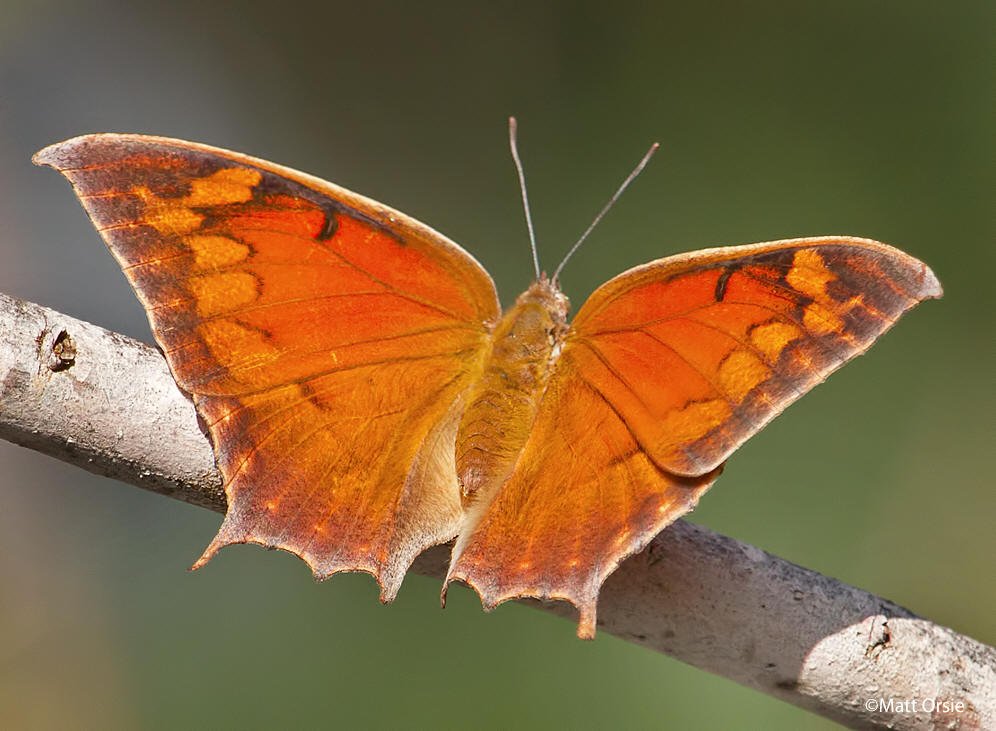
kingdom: Animalia
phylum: Arthropoda
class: Insecta
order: Lepidoptera
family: Nymphalidae
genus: Anaea
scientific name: Anaea aidea
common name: Tropical Leafwing
